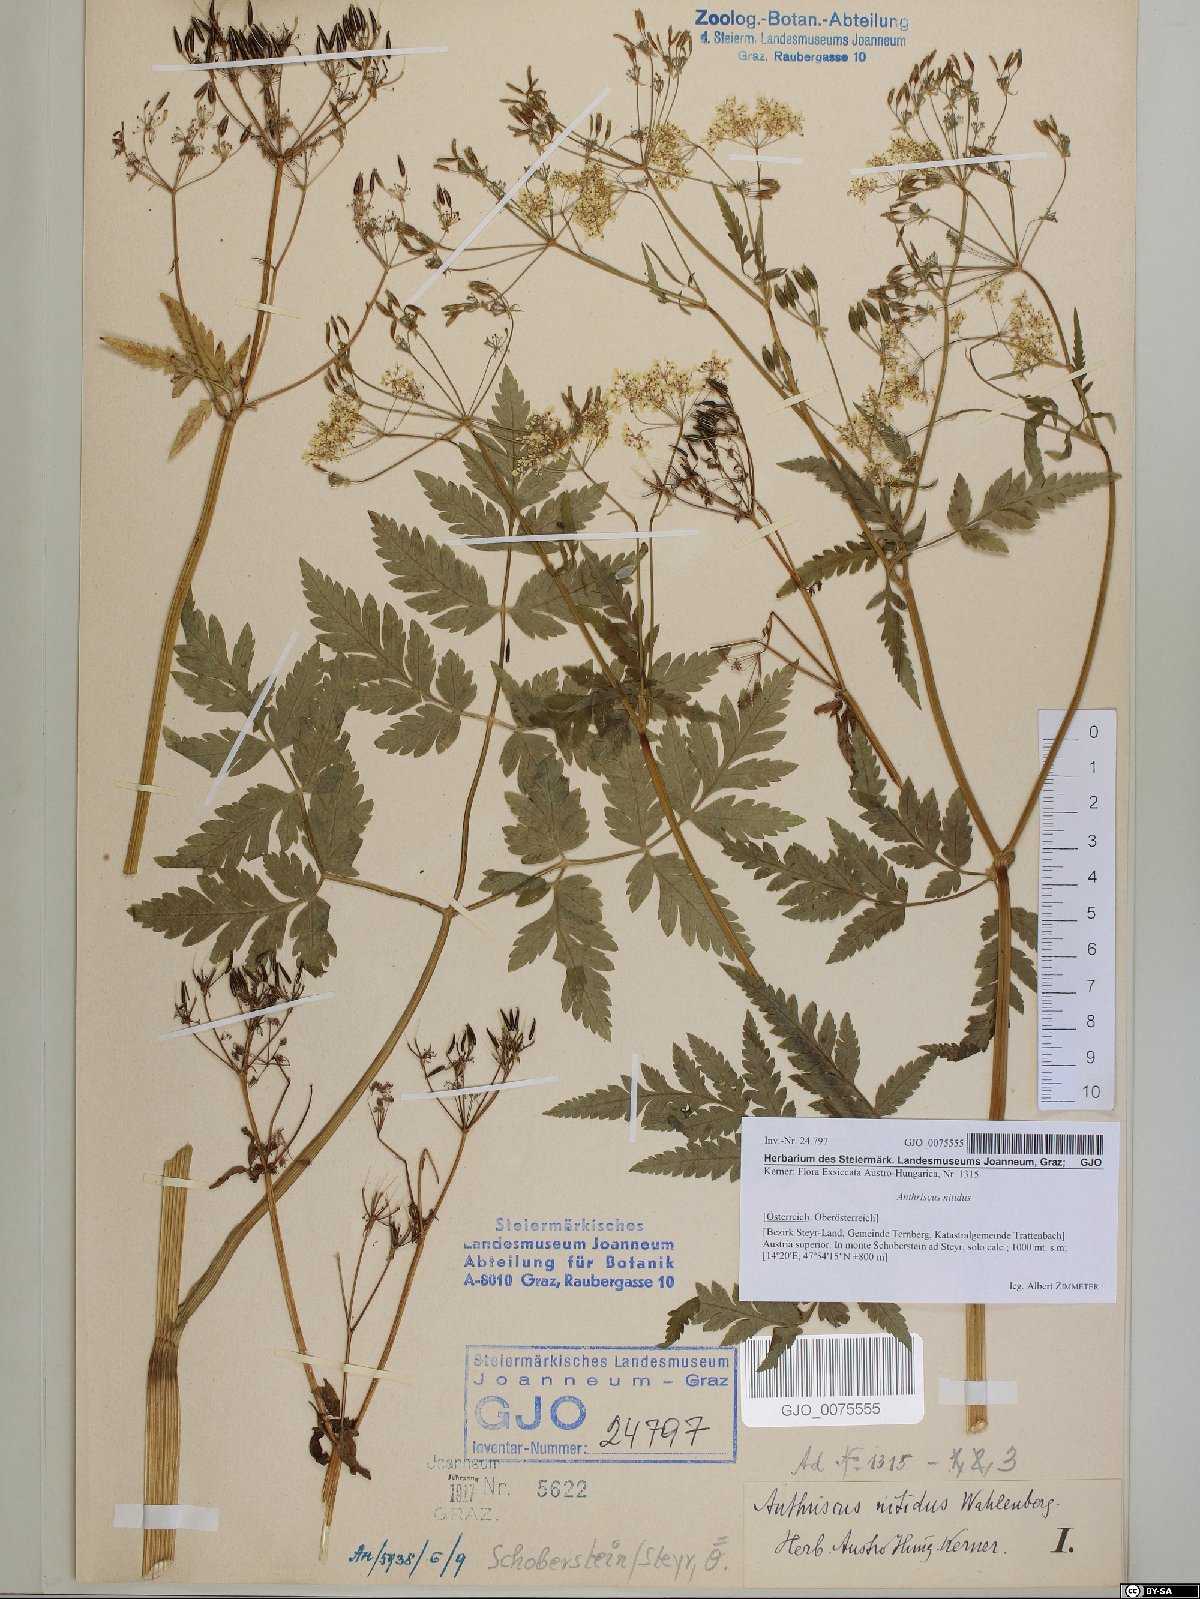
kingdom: Plantae
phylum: Tracheophyta
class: Magnoliopsida
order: Apiales
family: Apiaceae
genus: Anthriscus
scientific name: Anthriscus nitida
